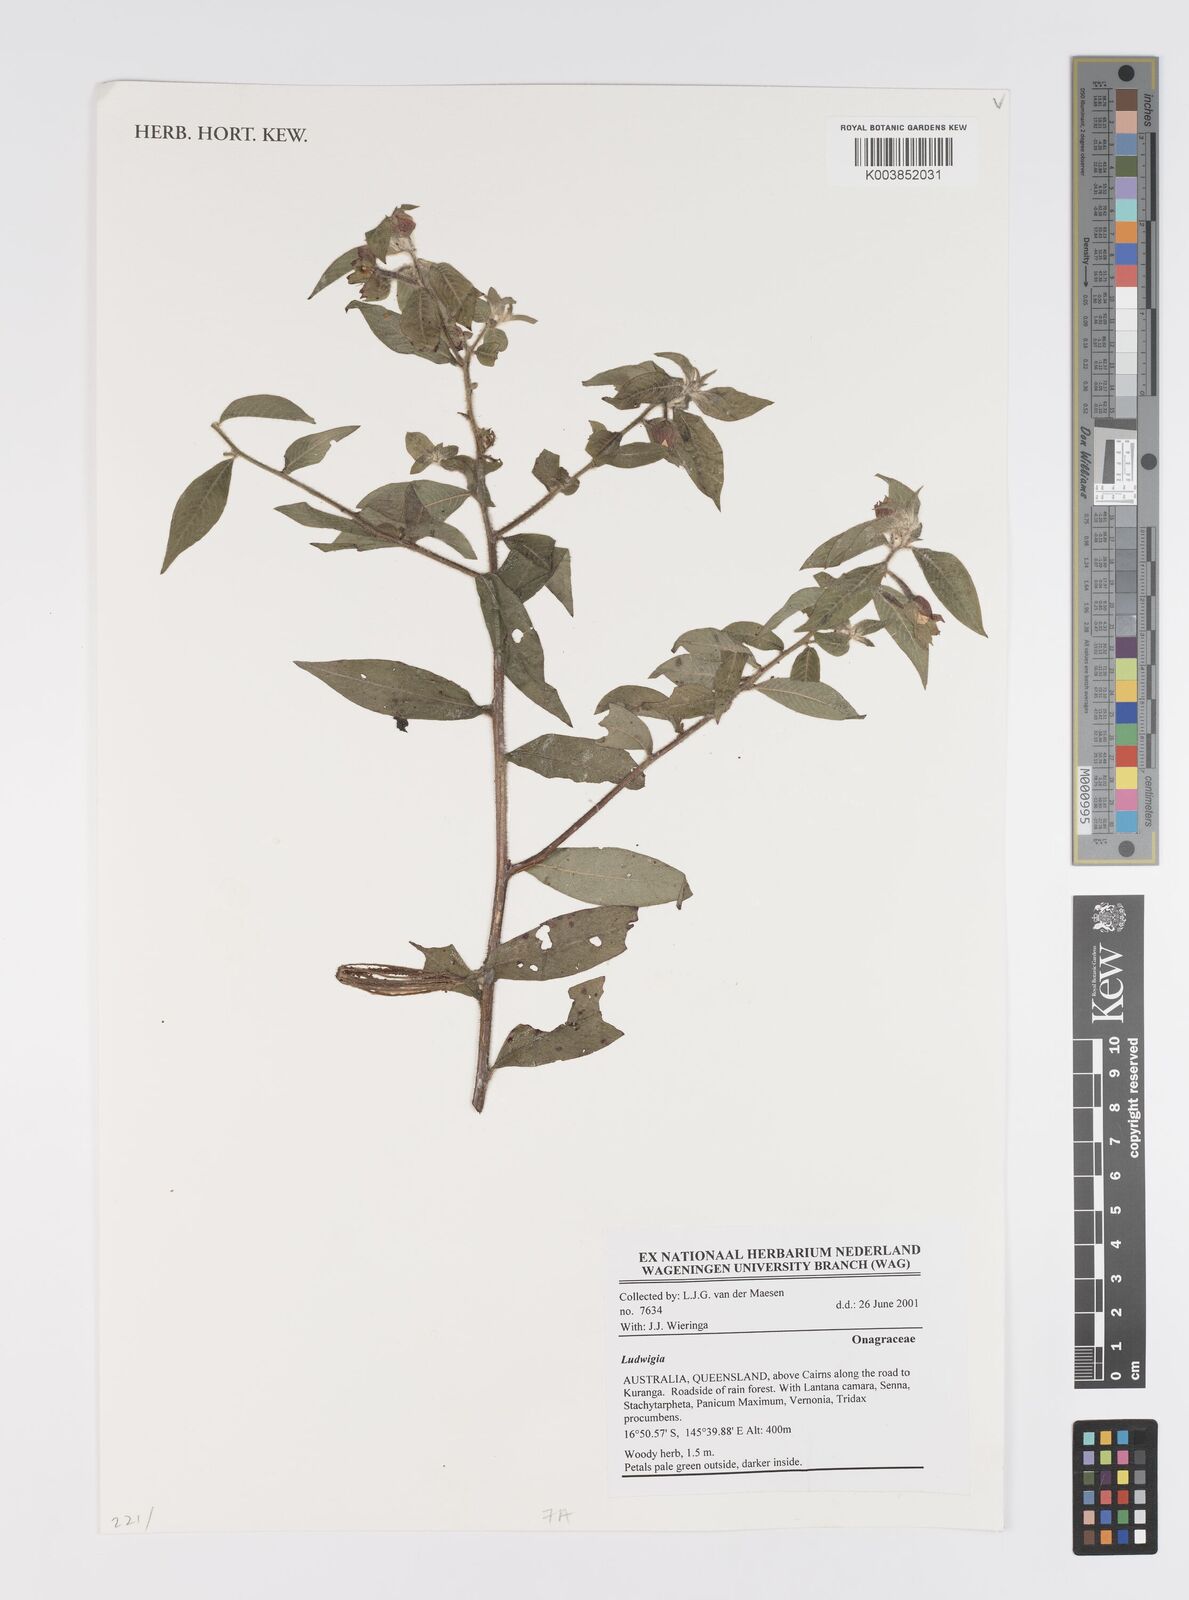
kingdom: Plantae
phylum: Tracheophyta
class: Magnoliopsida
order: Myrtales
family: Onagraceae
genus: Ludwigia
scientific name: Ludwigia
